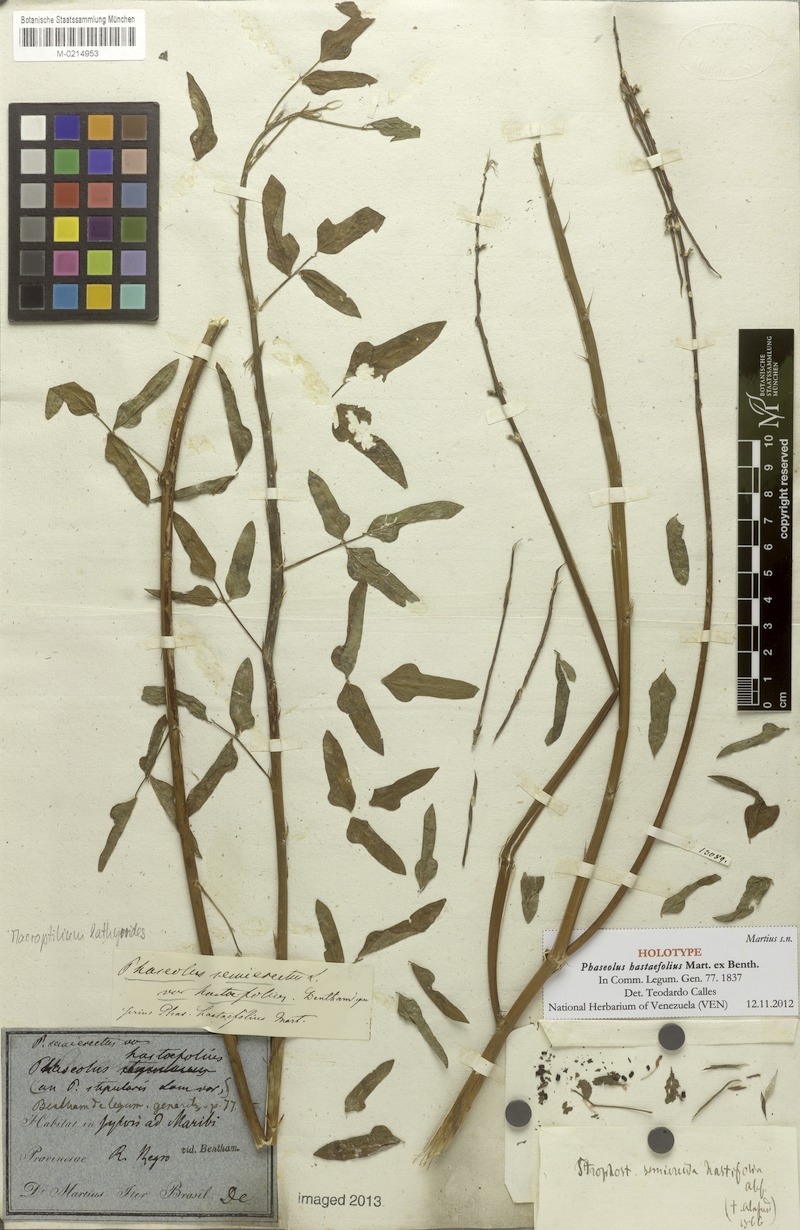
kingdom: Plantae
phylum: Tracheophyta
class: Magnoliopsida
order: Fabales
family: Fabaceae
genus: Macroptilium
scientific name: Macroptilium lathyroides
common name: Wild bushbean
